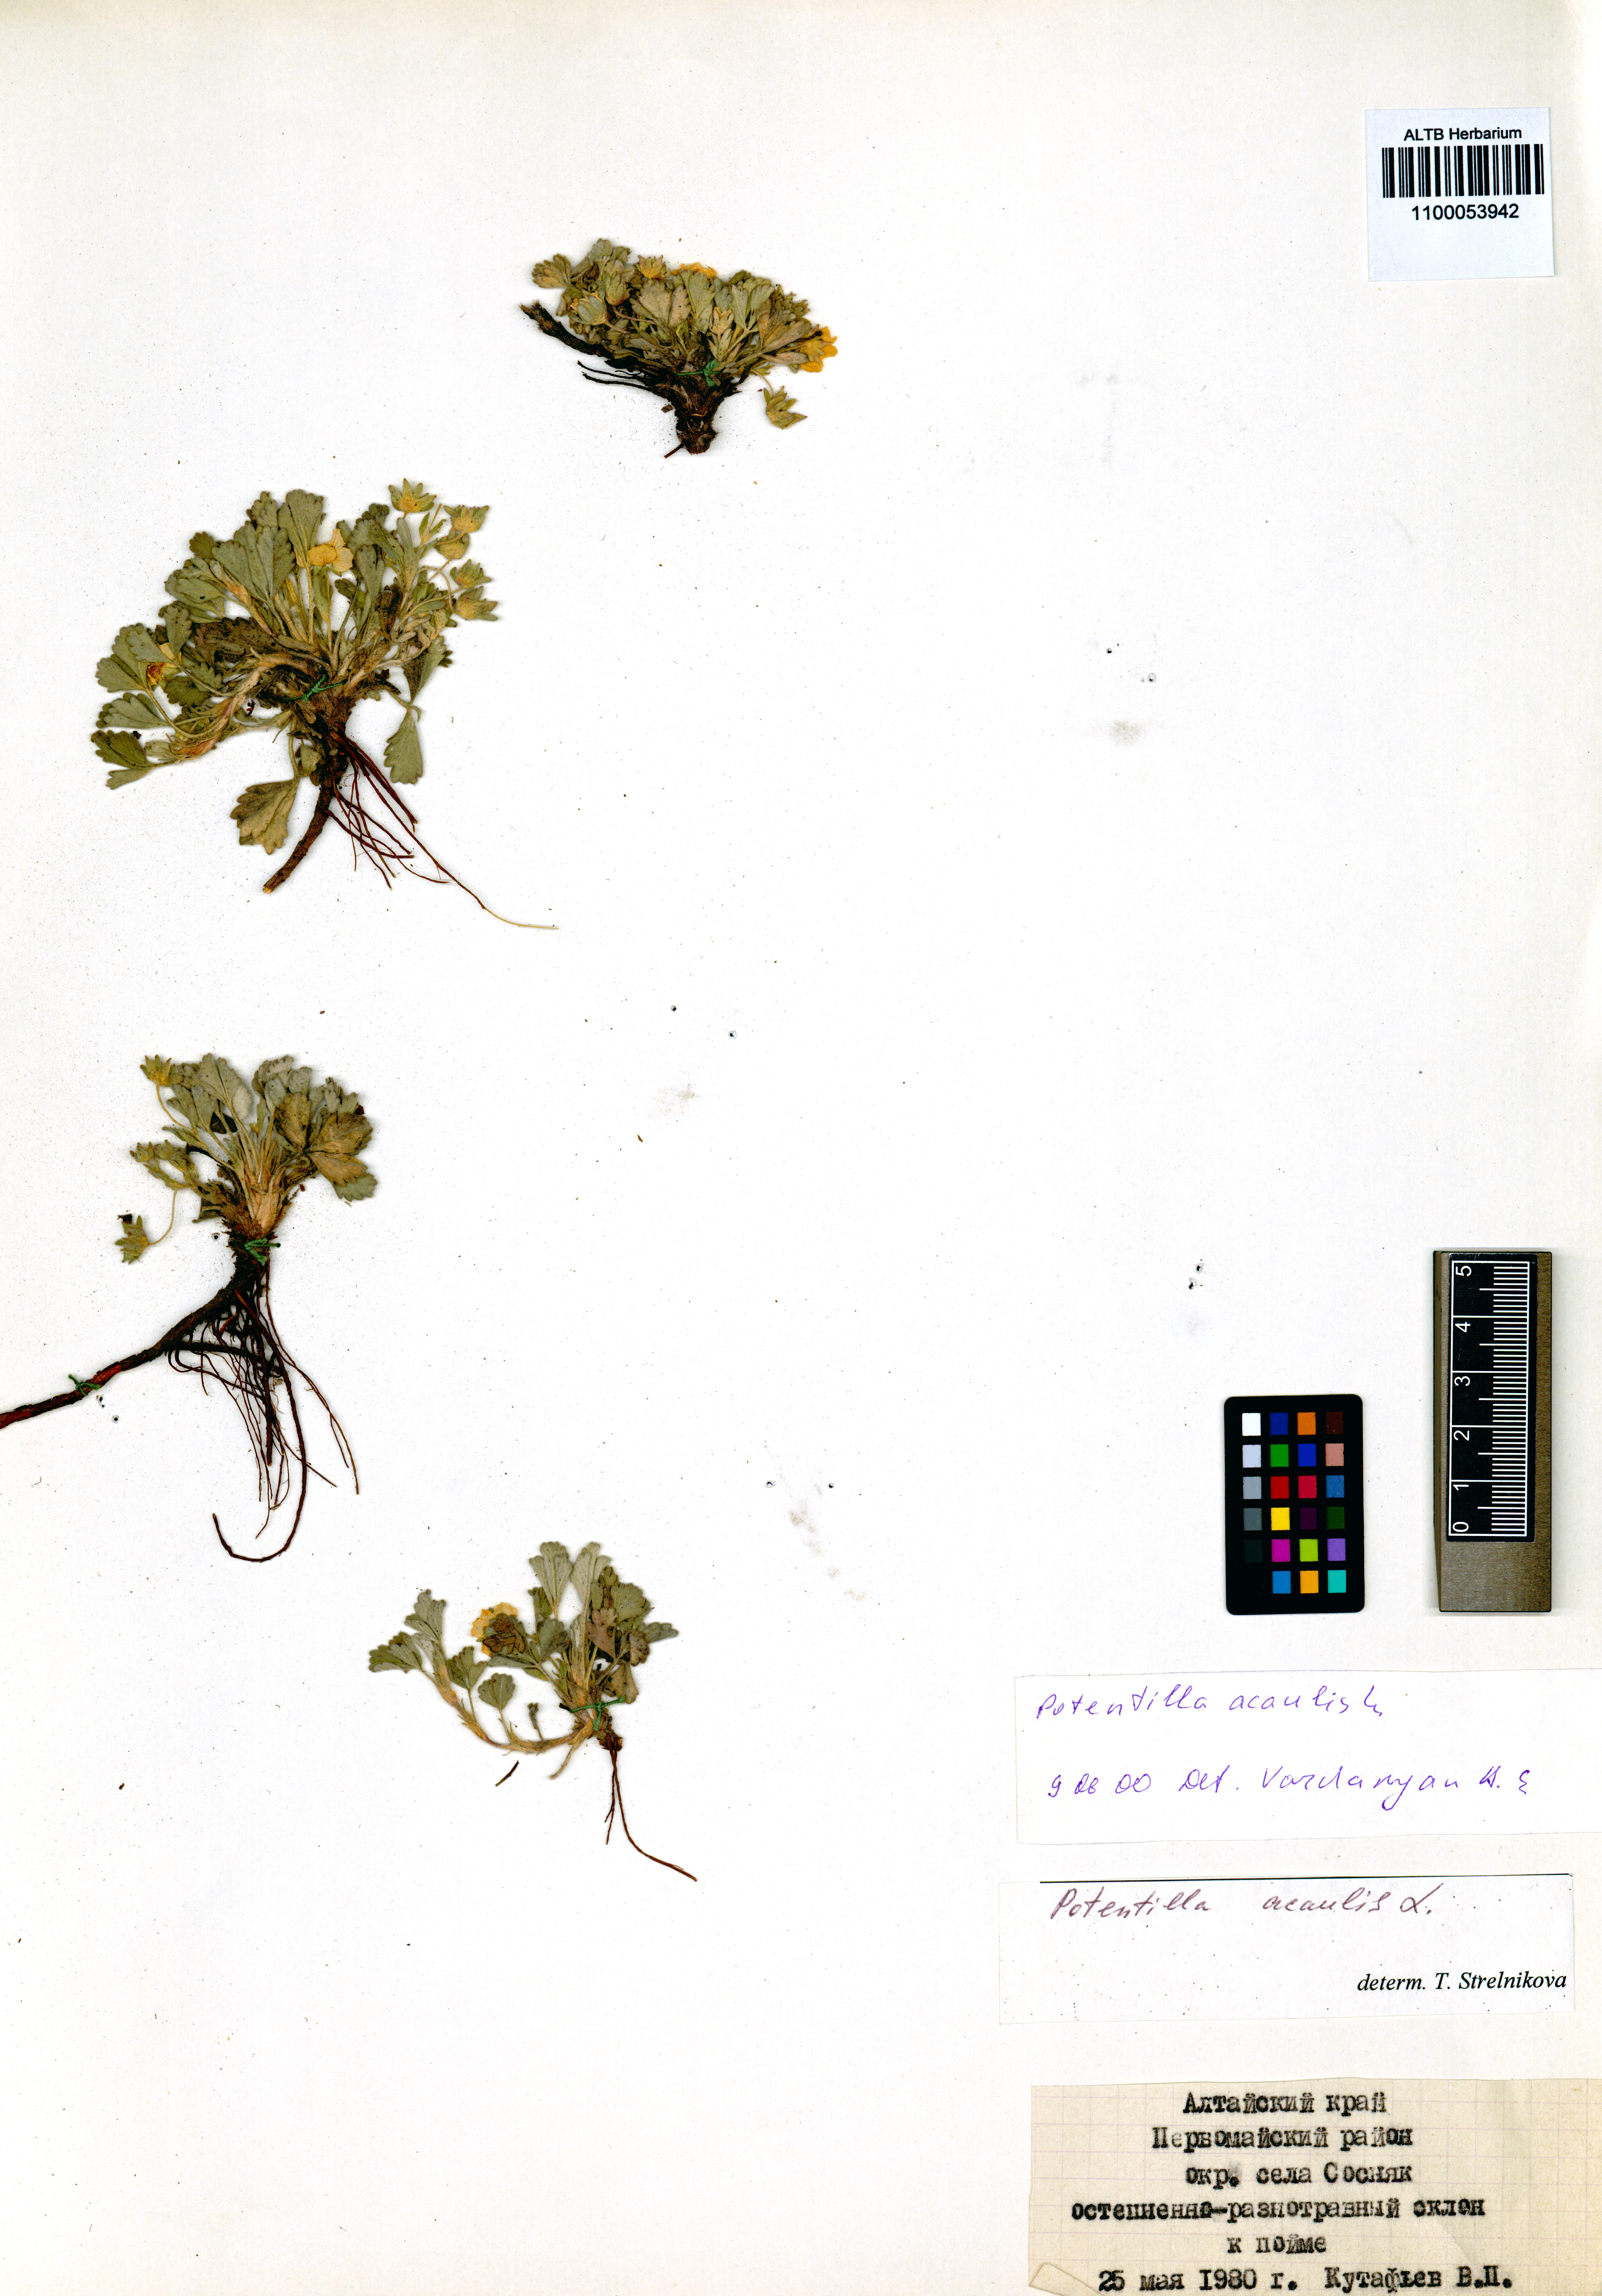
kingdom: Plantae
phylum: Tracheophyta
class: Magnoliopsida
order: Rosales
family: Rosaceae
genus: Potentilla
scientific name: Potentilla acaulis
